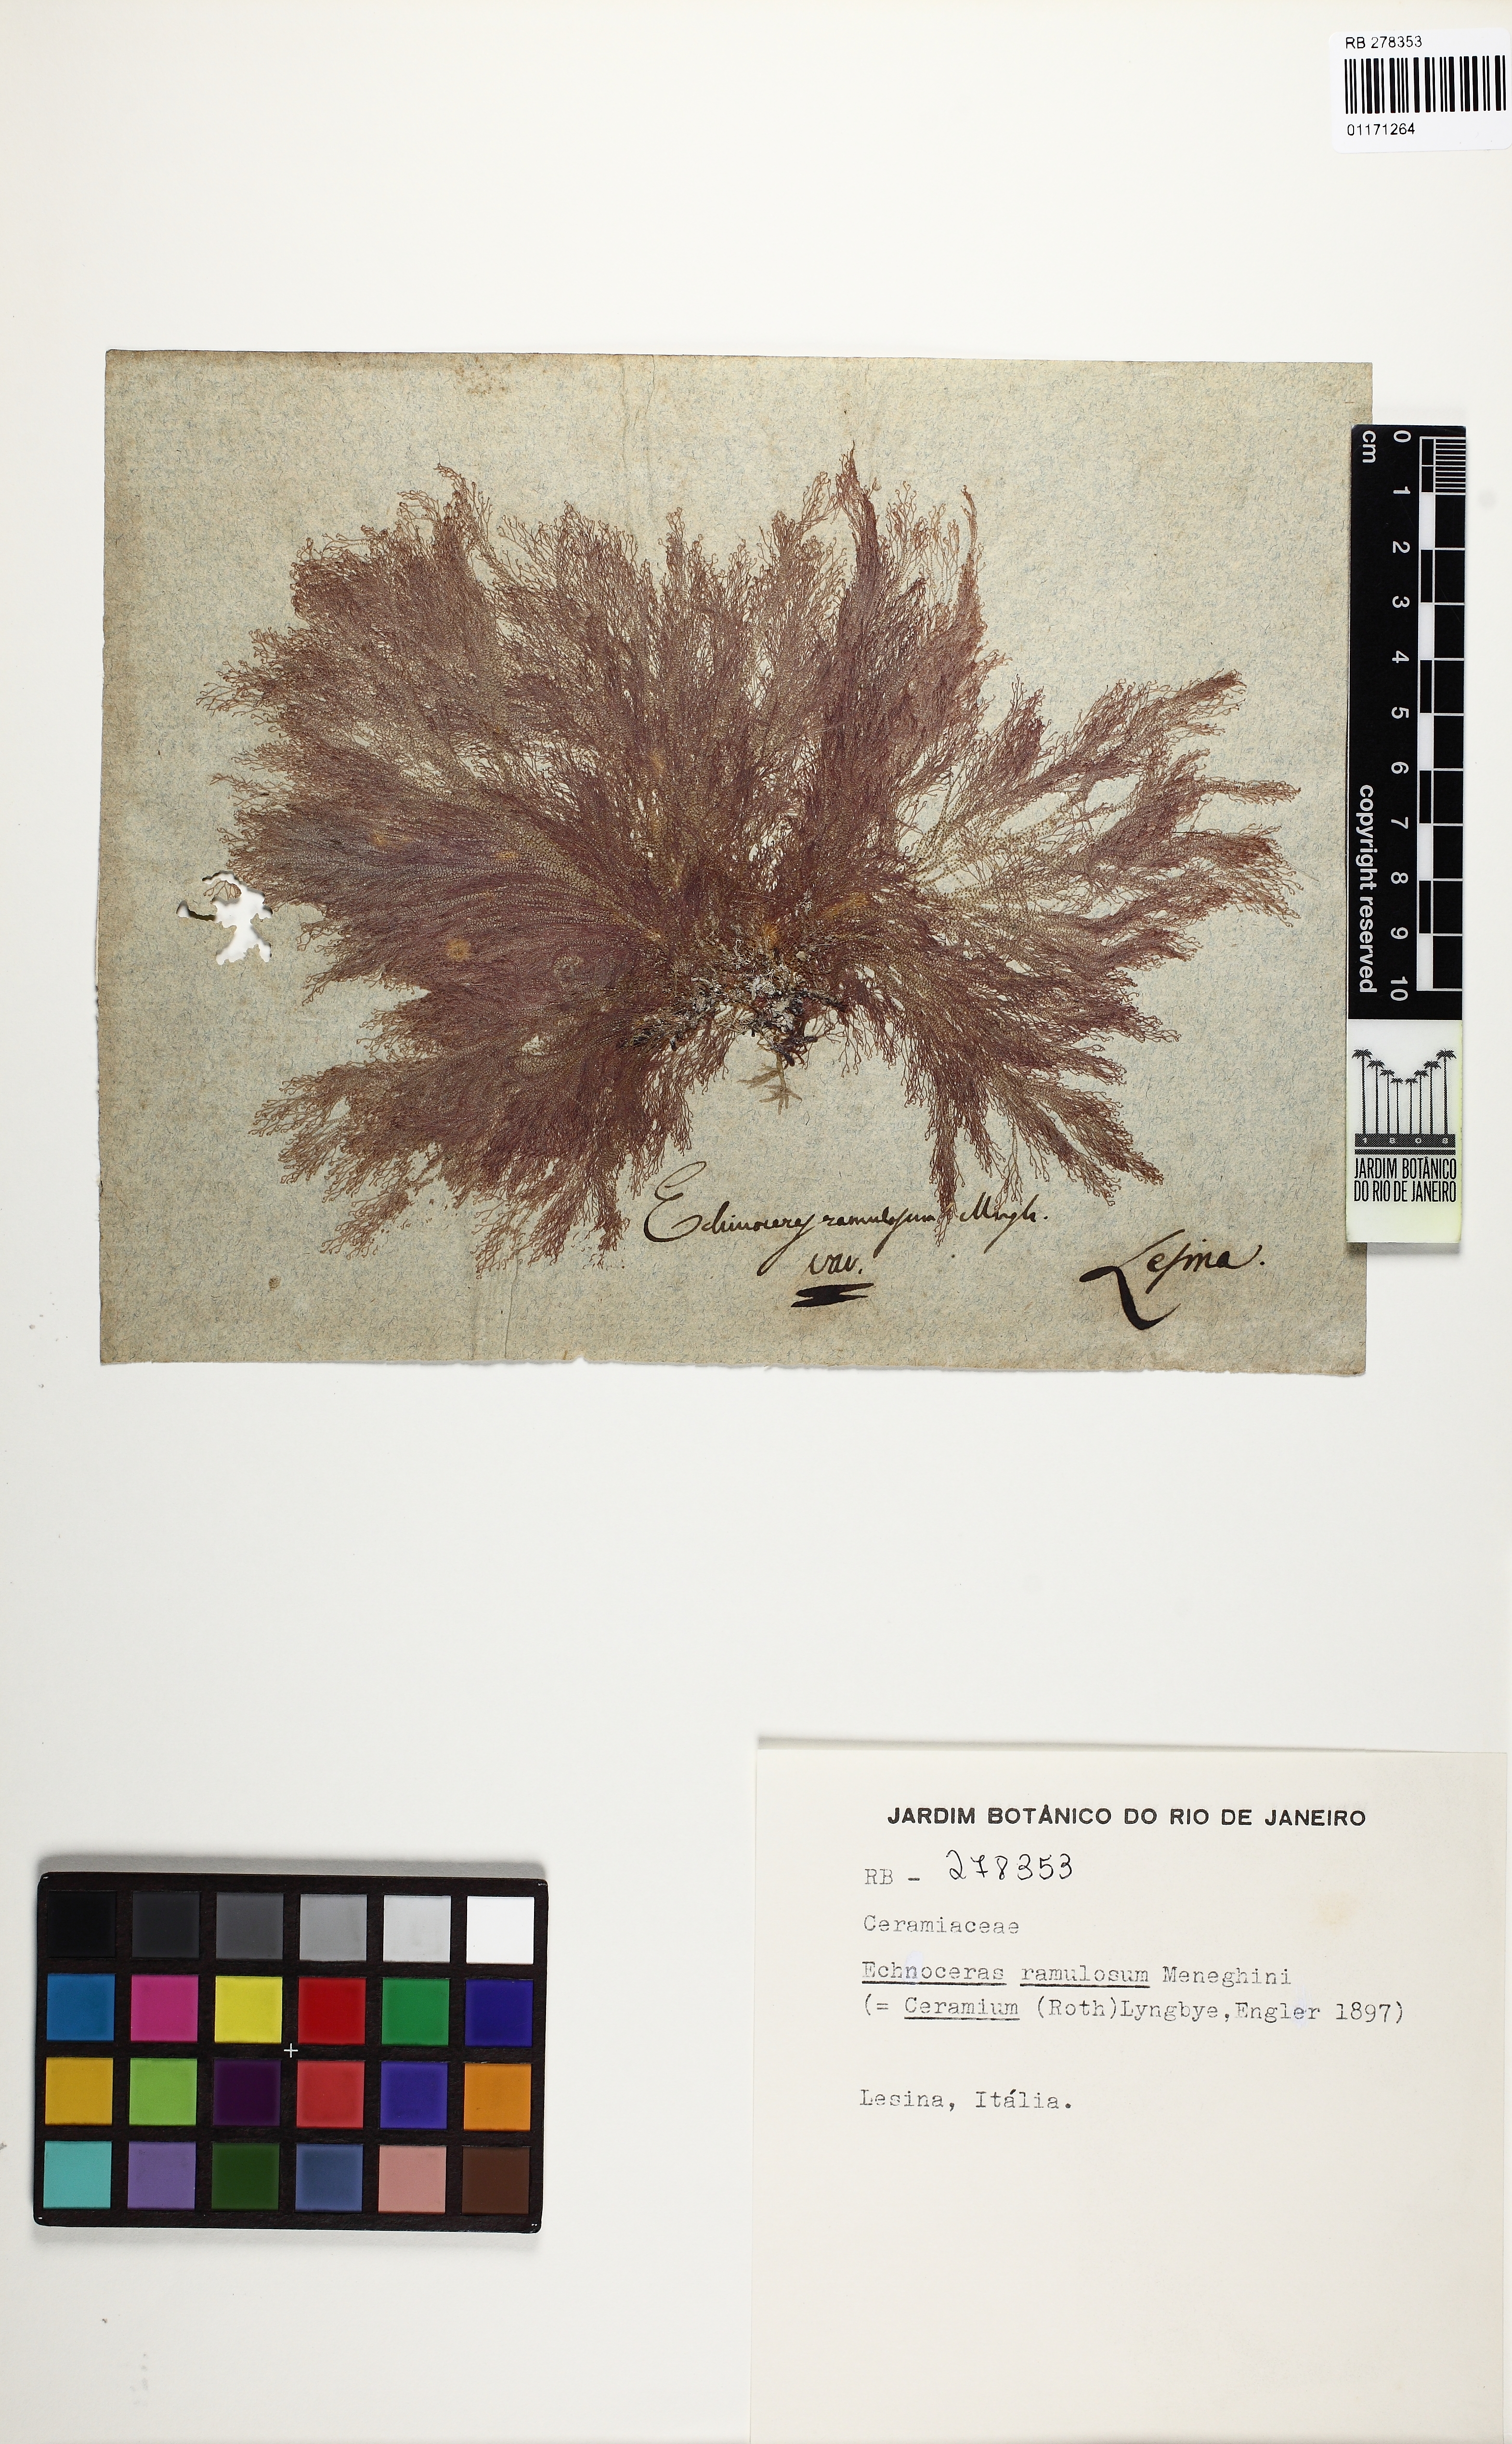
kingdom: Plantae
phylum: Rhodophyta
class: Florideophyceae
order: Ceramiales
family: Ceramiaceae
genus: Ceramium
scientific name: Ceramium
